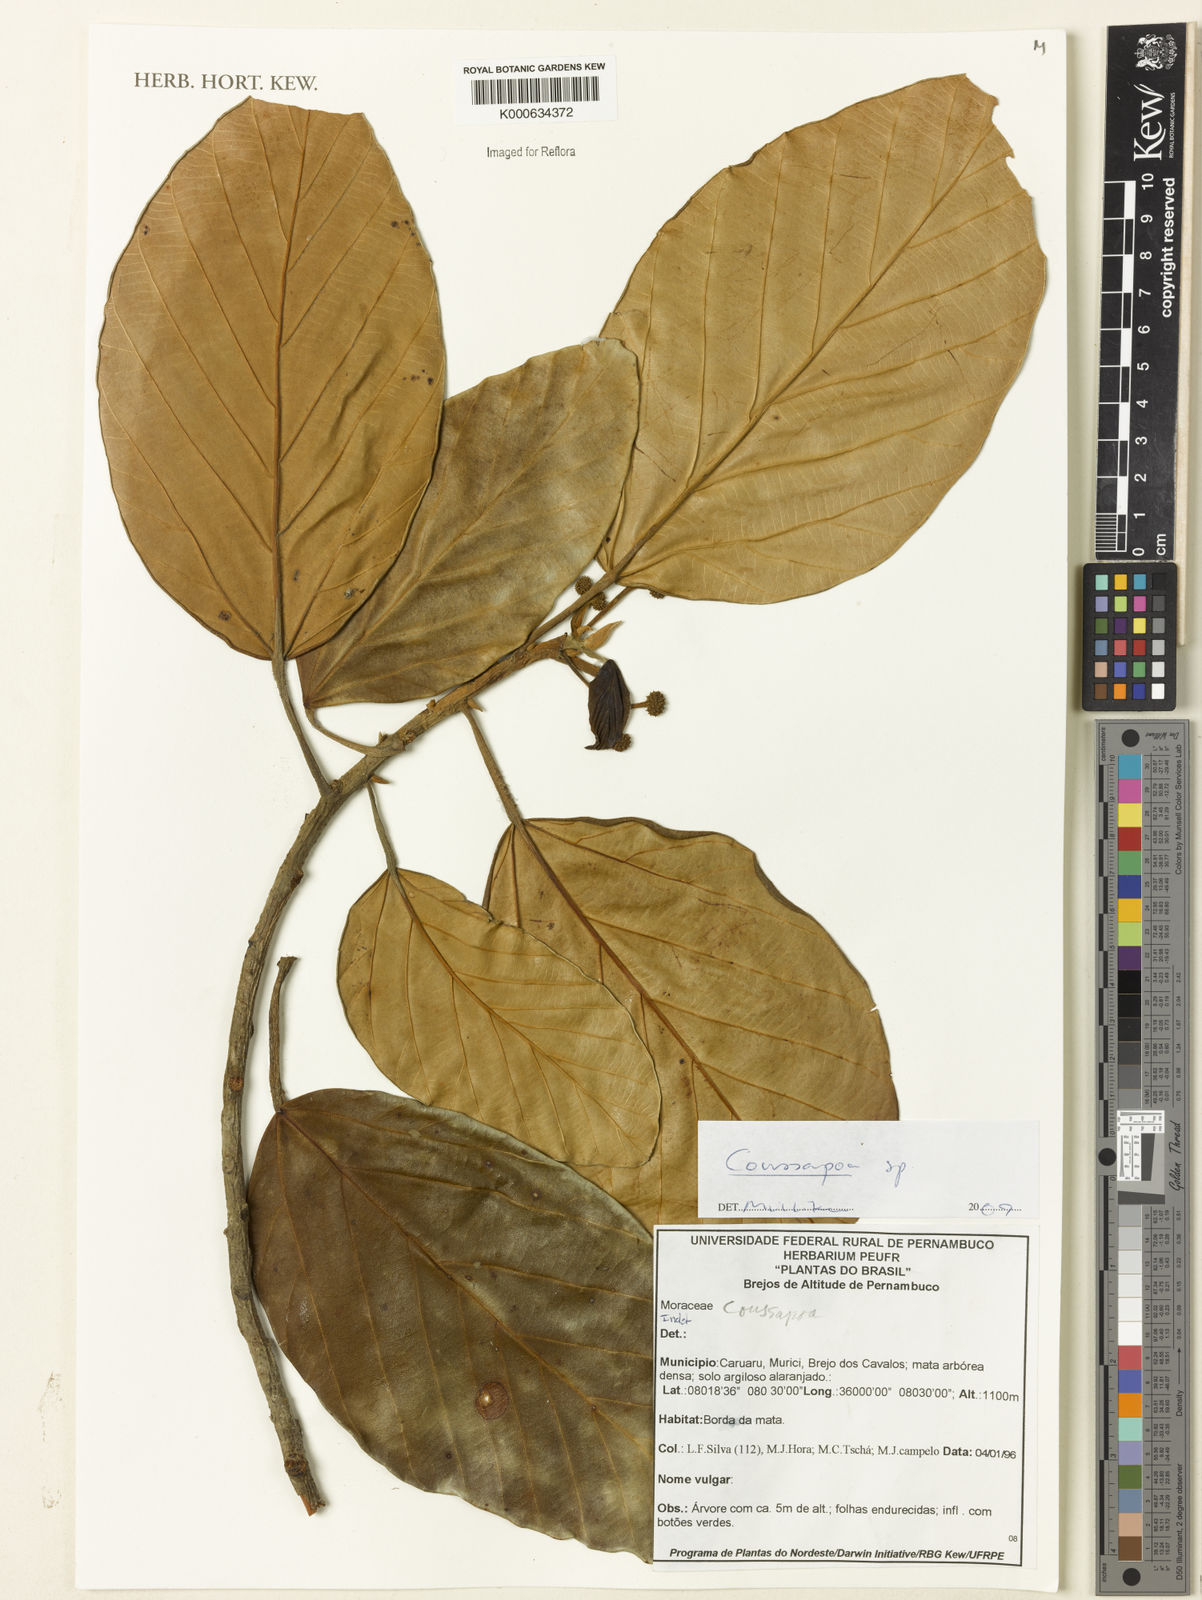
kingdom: Plantae
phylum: Tracheophyta
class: Magnoliopsida
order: Rosales
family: Urticaceae
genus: Coussapoa
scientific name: Coussapoa
